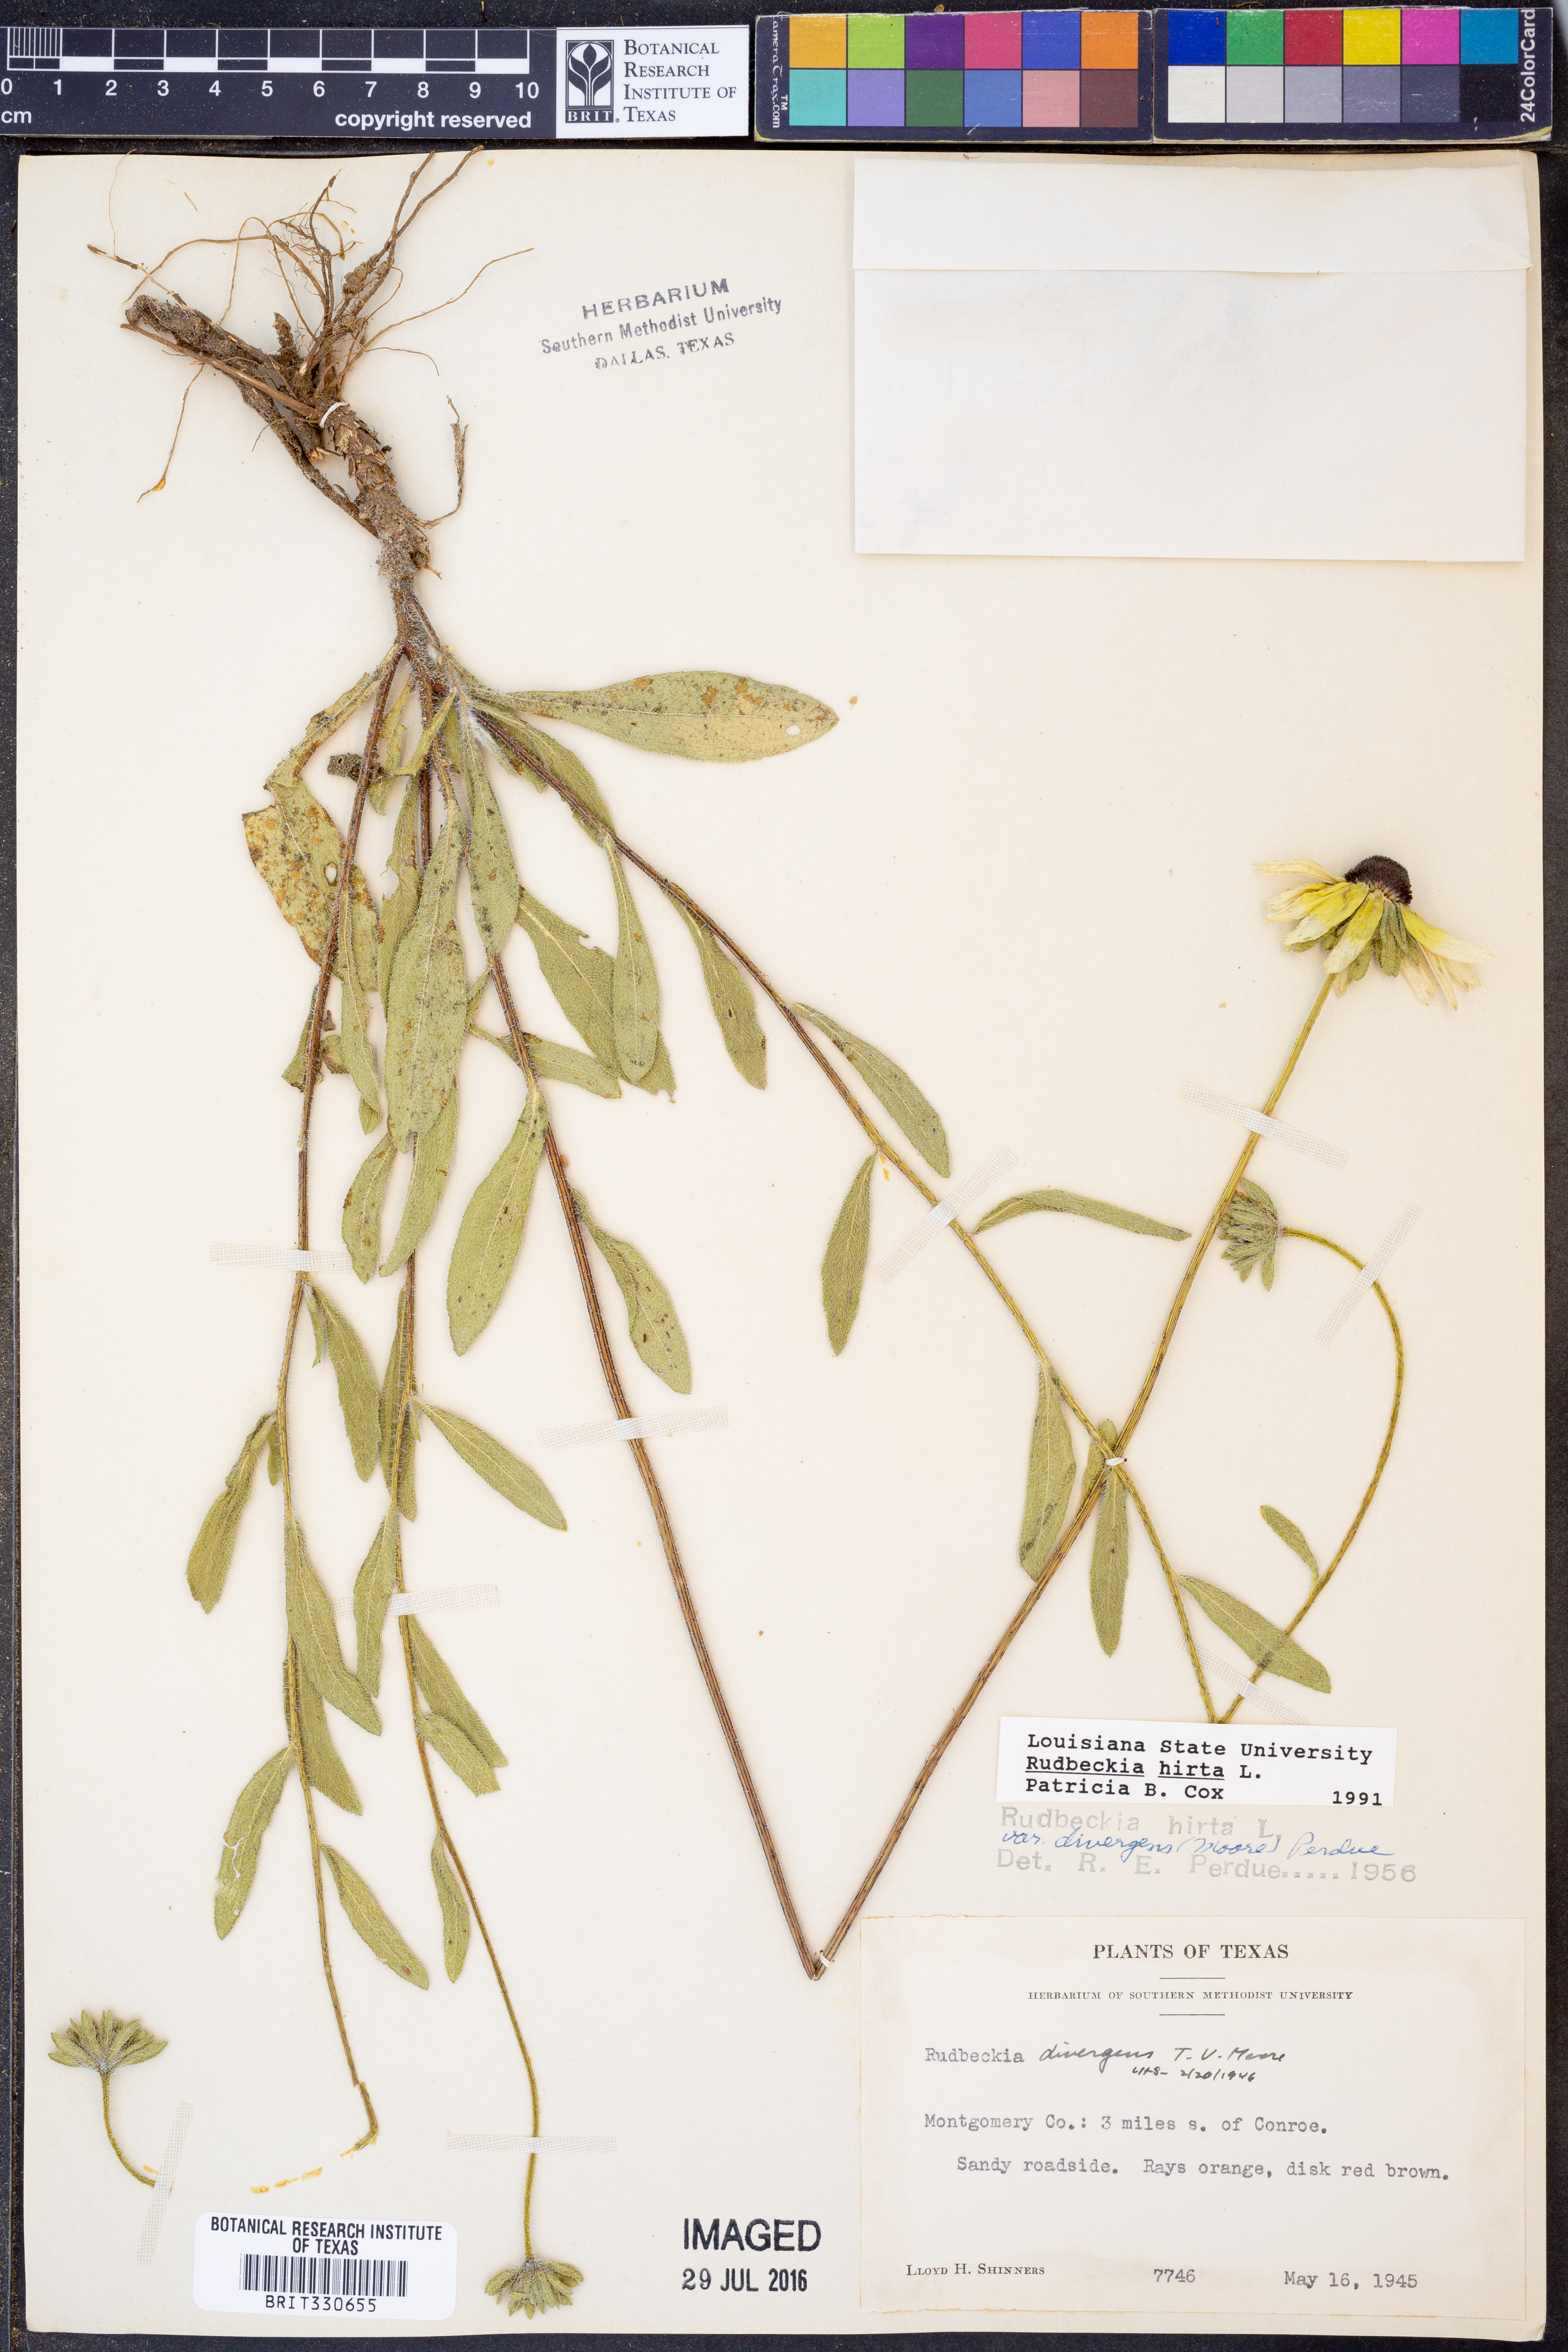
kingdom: Plantae
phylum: Tracheophyta
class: Magnoliopsida
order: Asterales
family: Asteraceae
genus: Rudbeckia
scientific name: Rudbeckia hirta
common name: Black-eyed-susan
